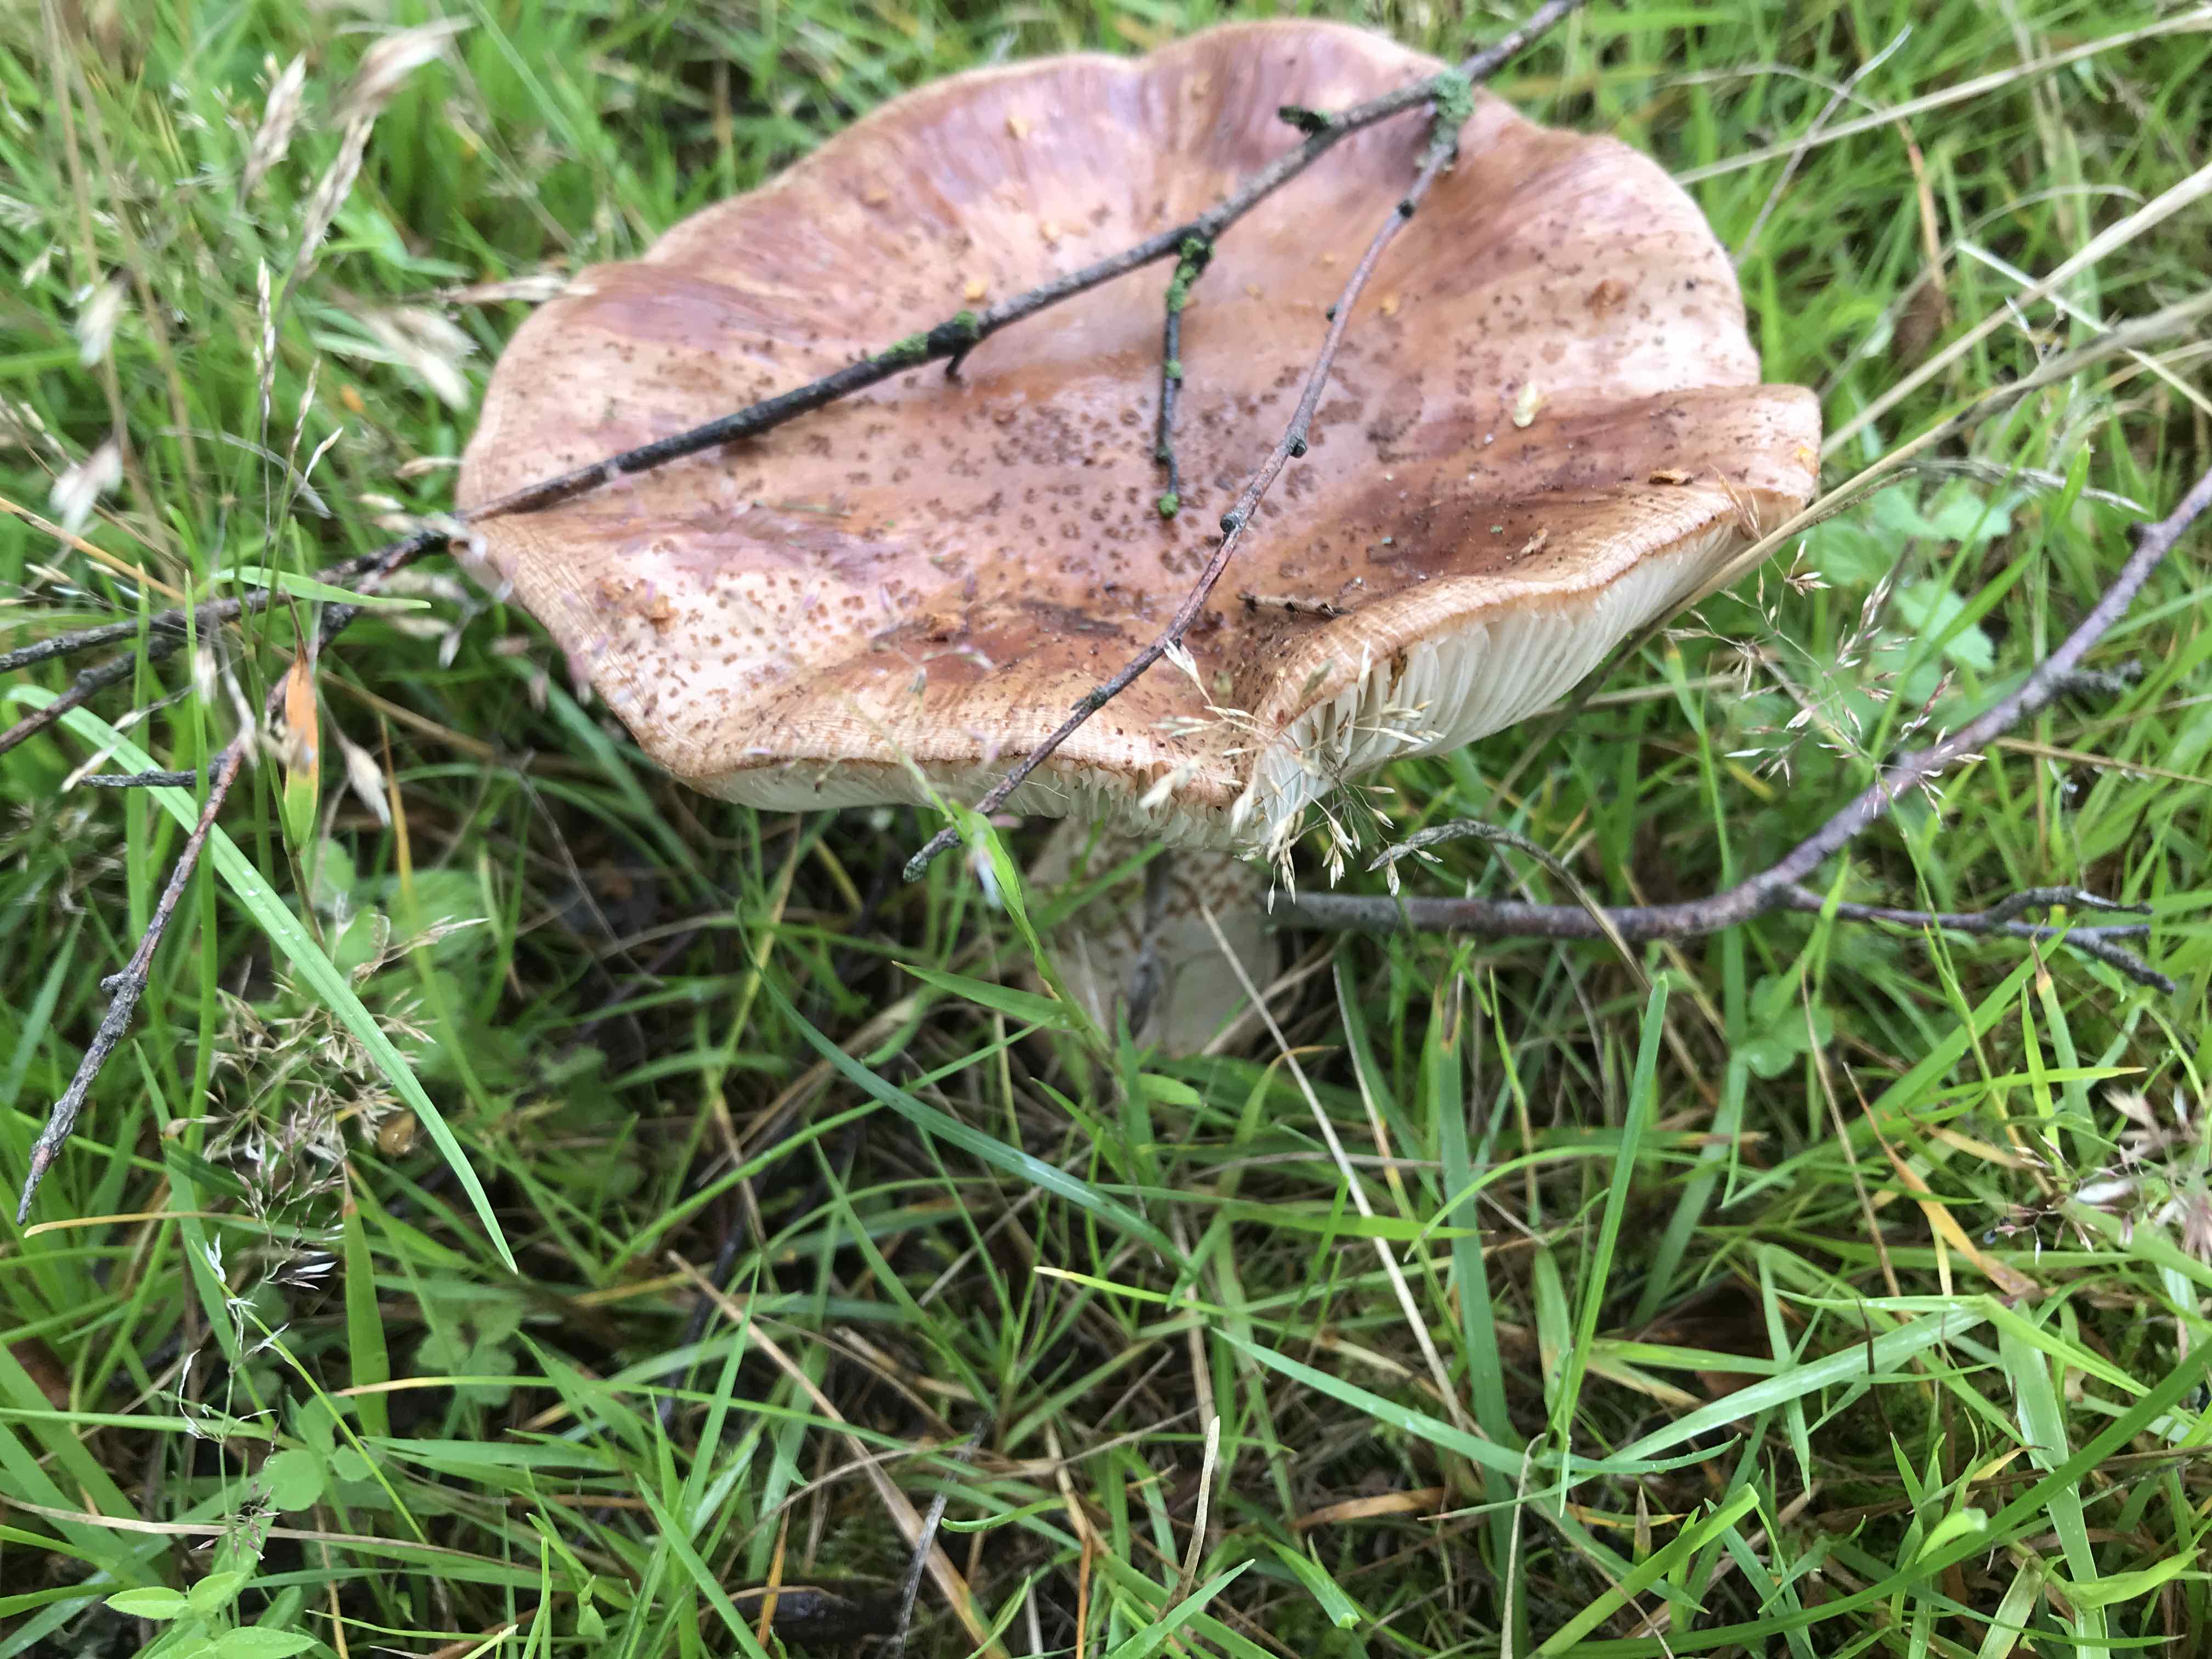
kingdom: Fungi
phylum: Basidiomycota
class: Agaricomycetes
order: Agaricales
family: Amanitaceae
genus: Amanita
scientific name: Amanita rubescens
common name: rødmende fluesvamp
